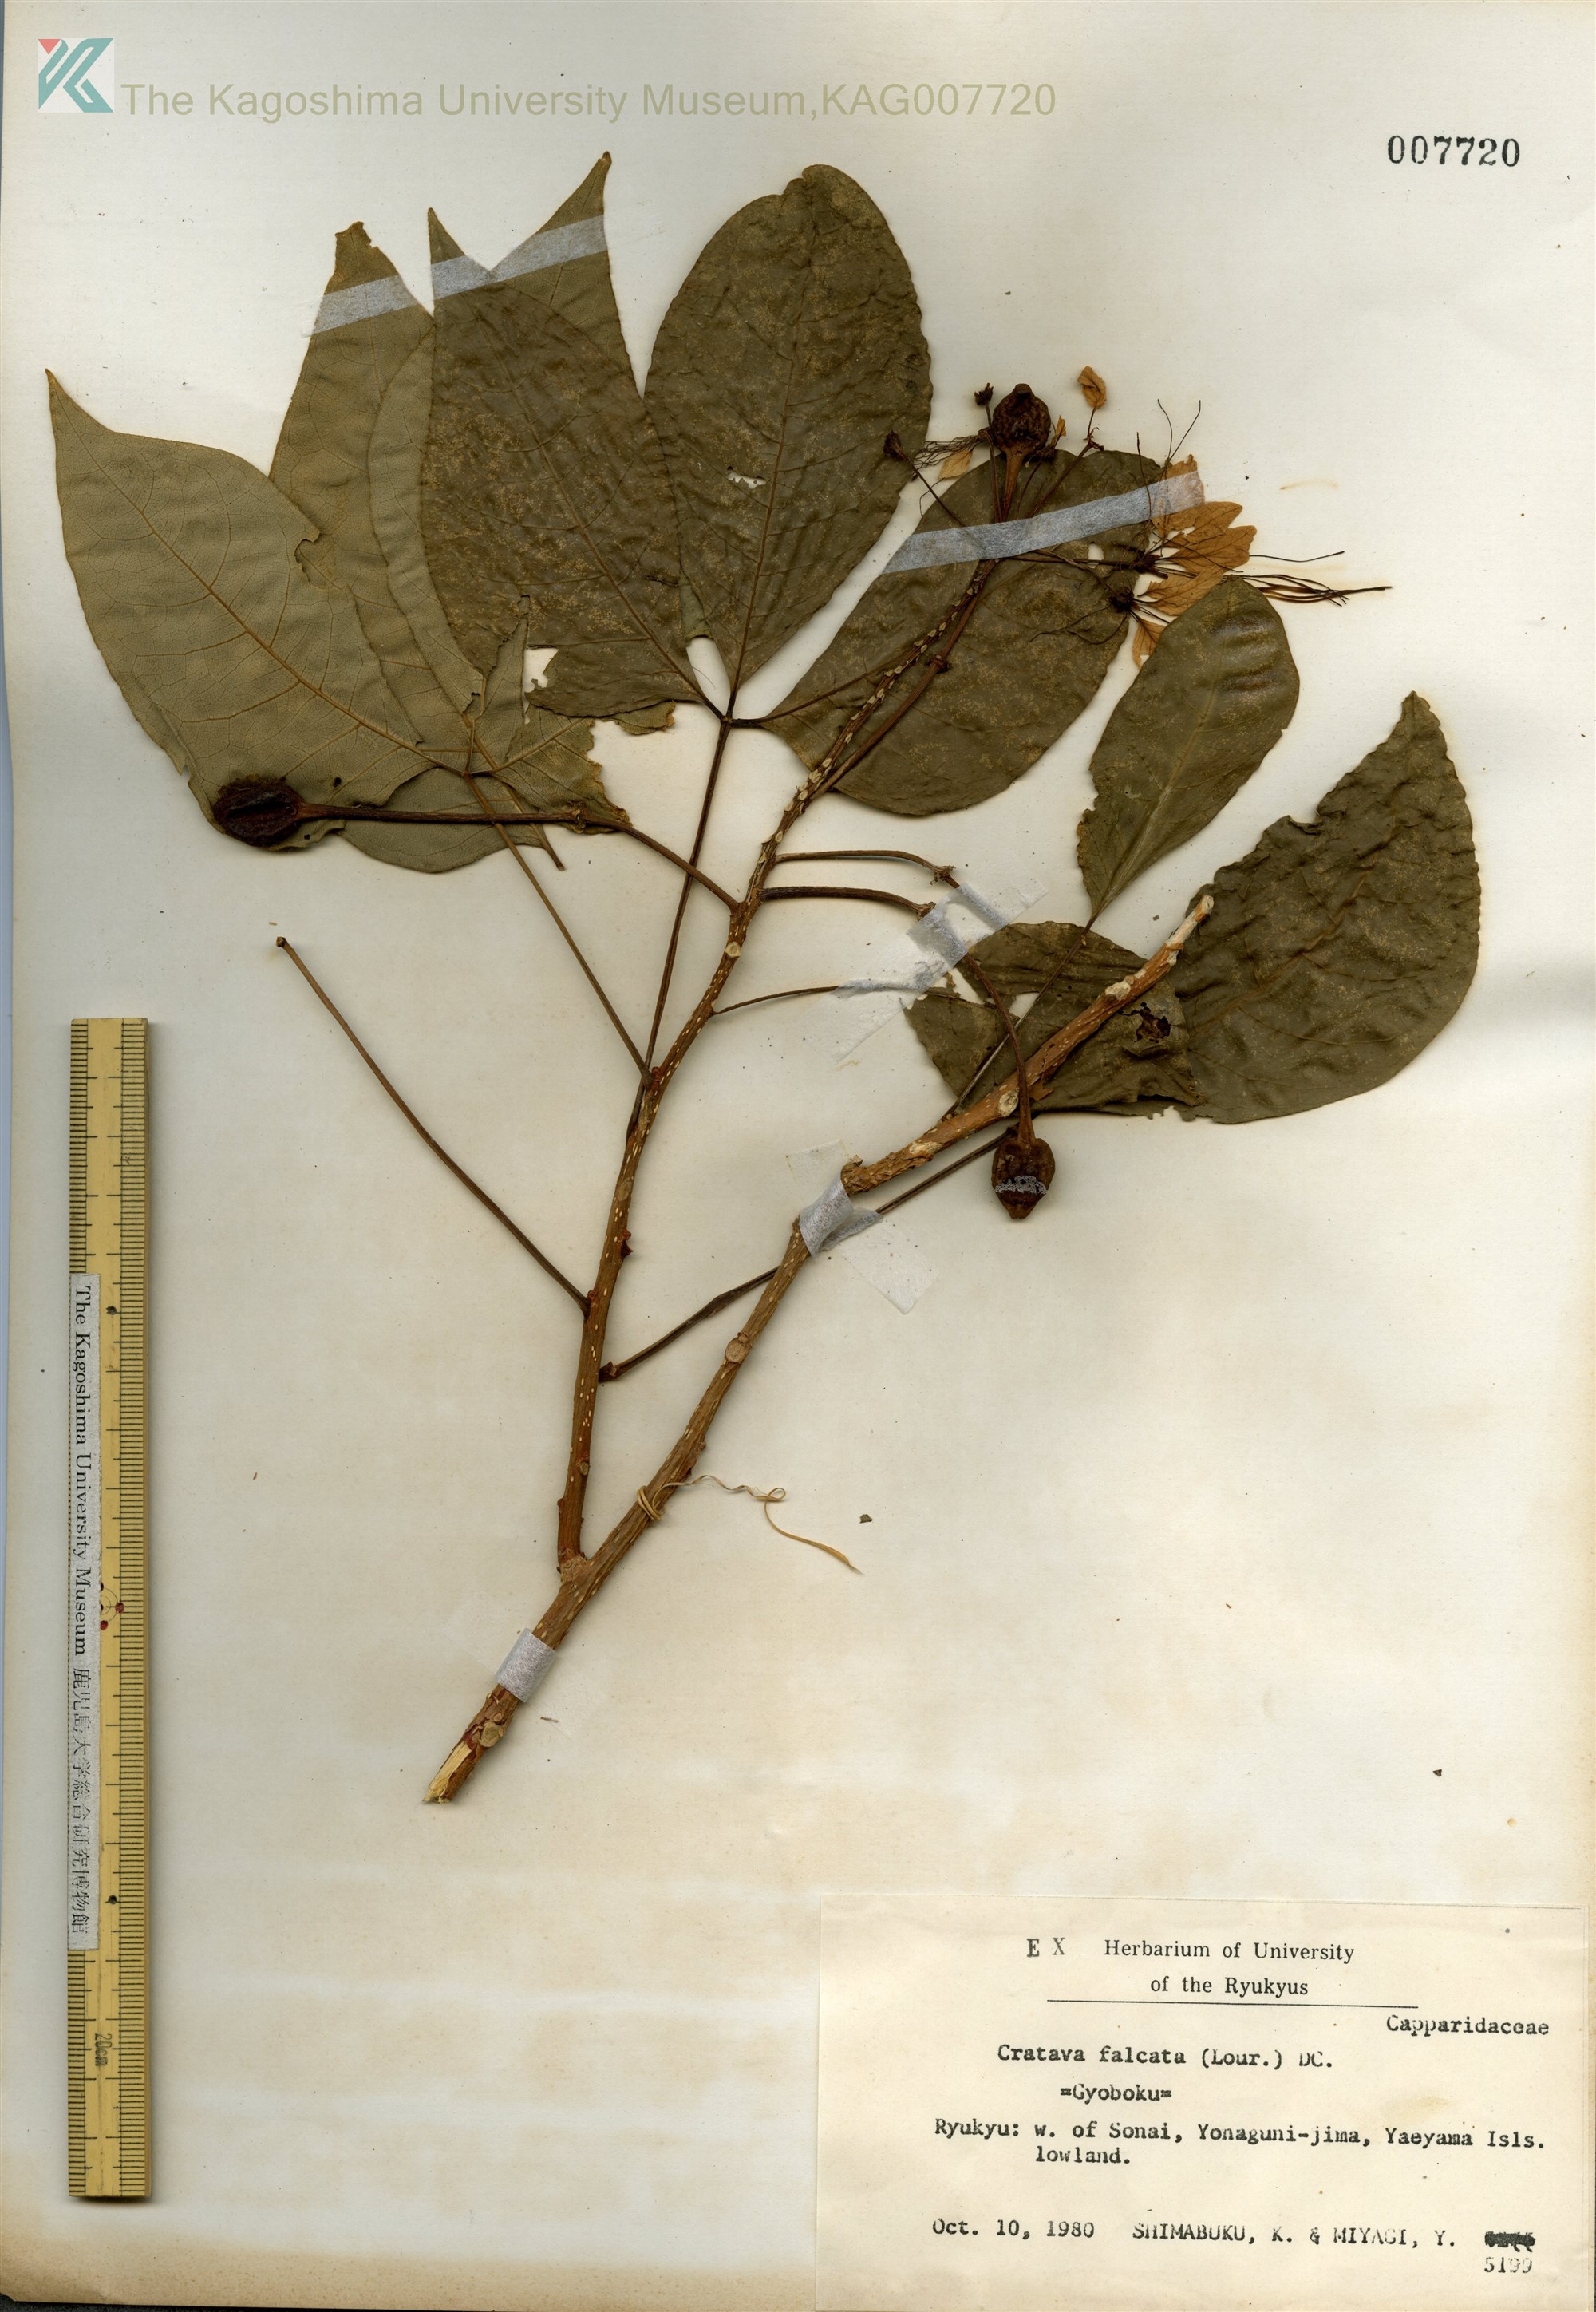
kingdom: Plantae
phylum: Tracheophyta
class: Magnoliopsida
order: Brassicales
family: Capparaceae
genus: Crateva
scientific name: Crateva formosensis
